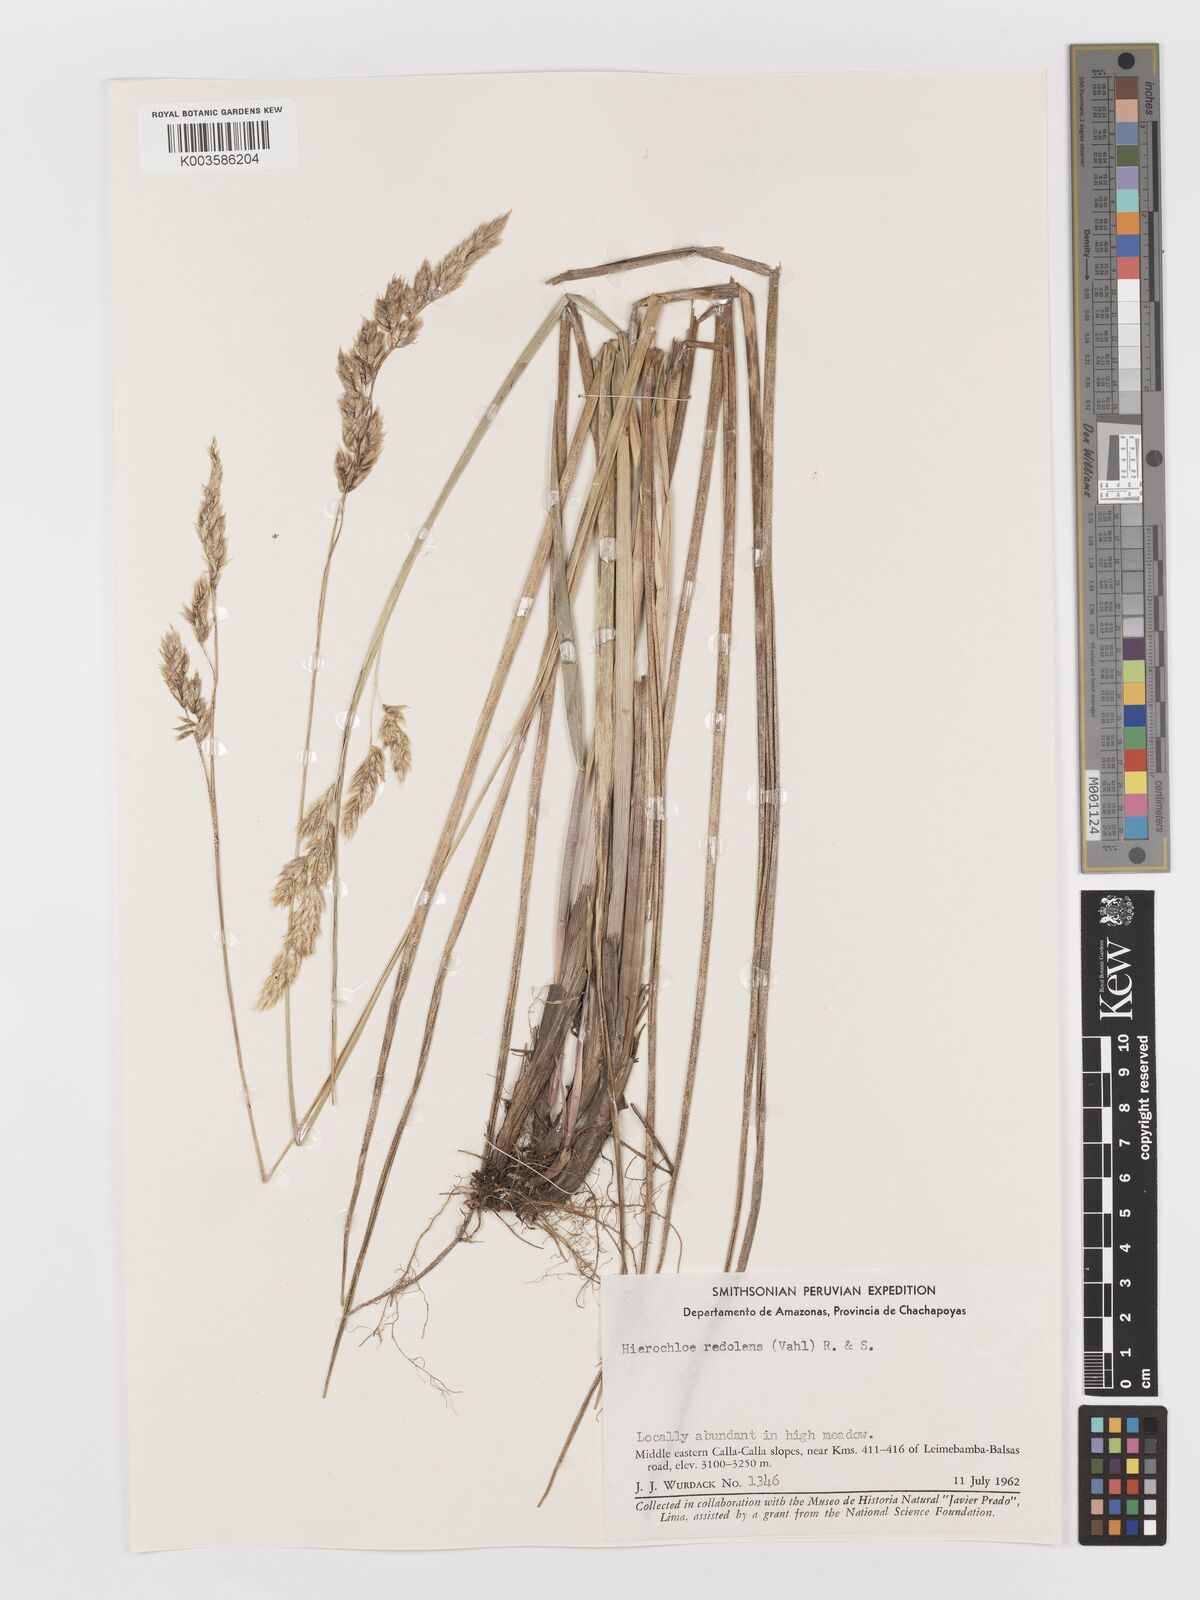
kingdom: Plantae
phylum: Tracheophyta
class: Liliopsida
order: Poales
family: Poaceae
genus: Anthoxanthum
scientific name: Anthoxanthum redolens
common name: Sweet holy grass
